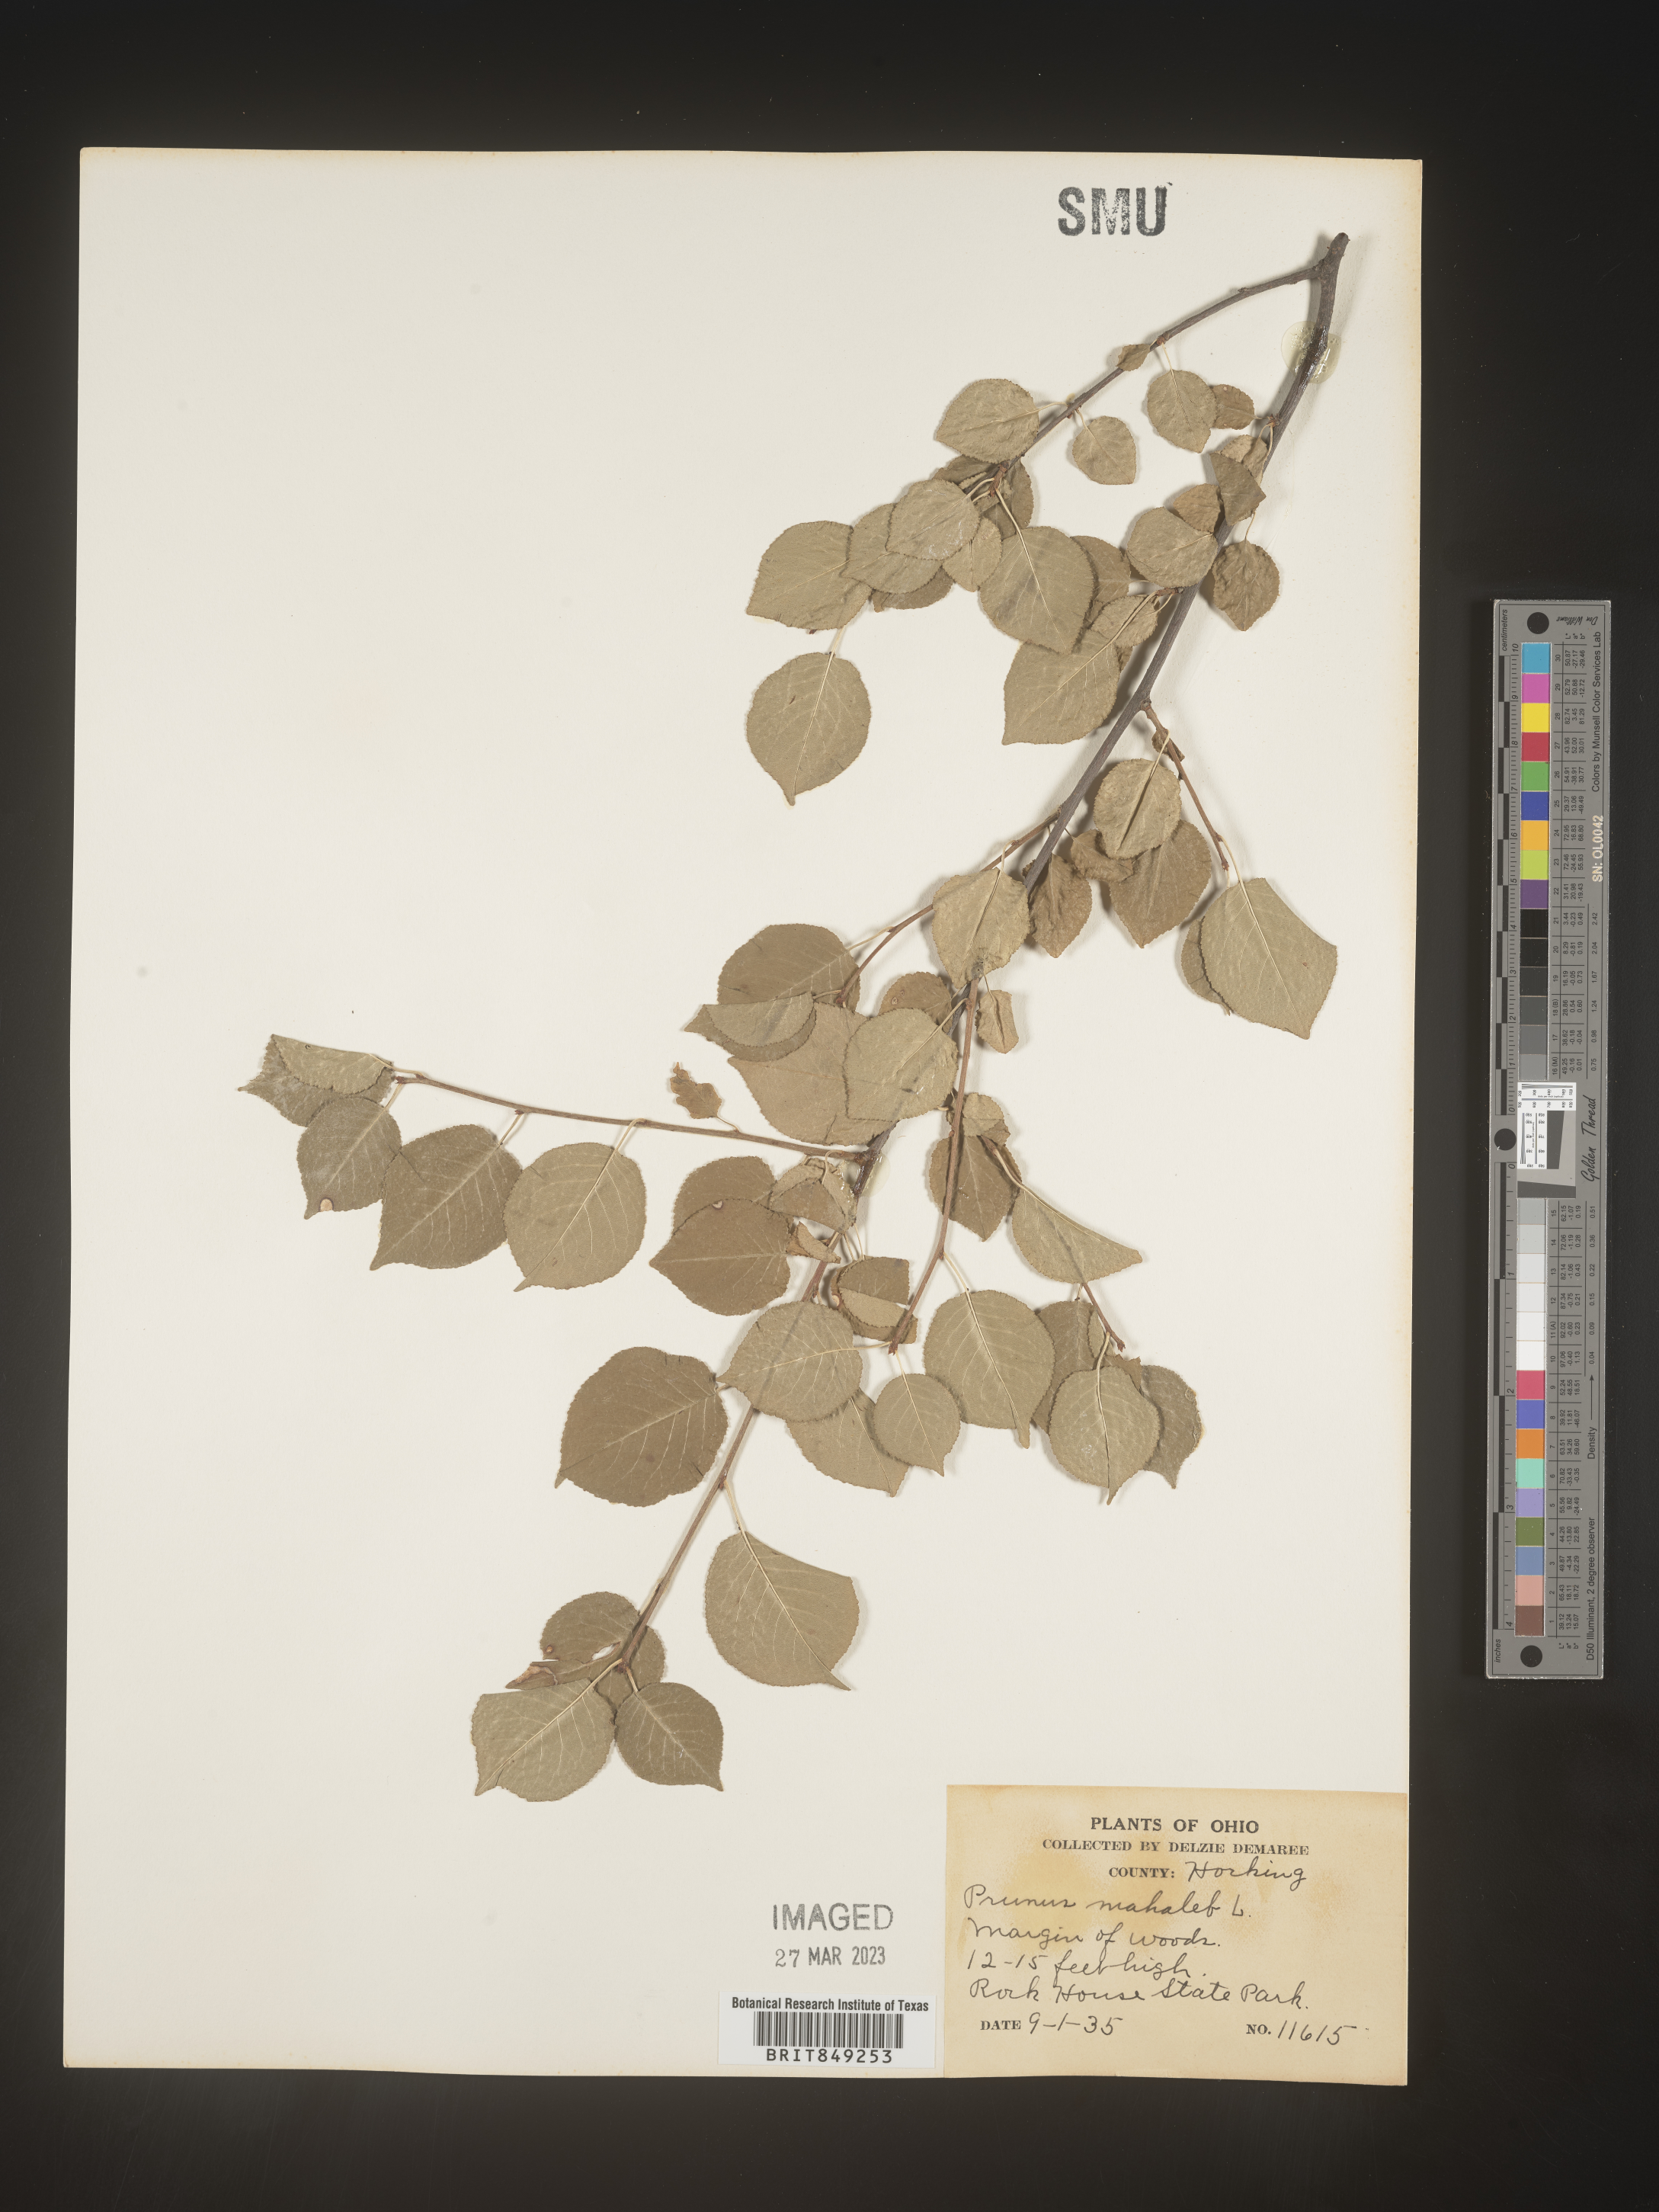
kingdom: Plantae
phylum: Tracheophyta
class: Magnoliopsida
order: Rosales
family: Rosaceae
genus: Prunus
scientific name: Prunus
